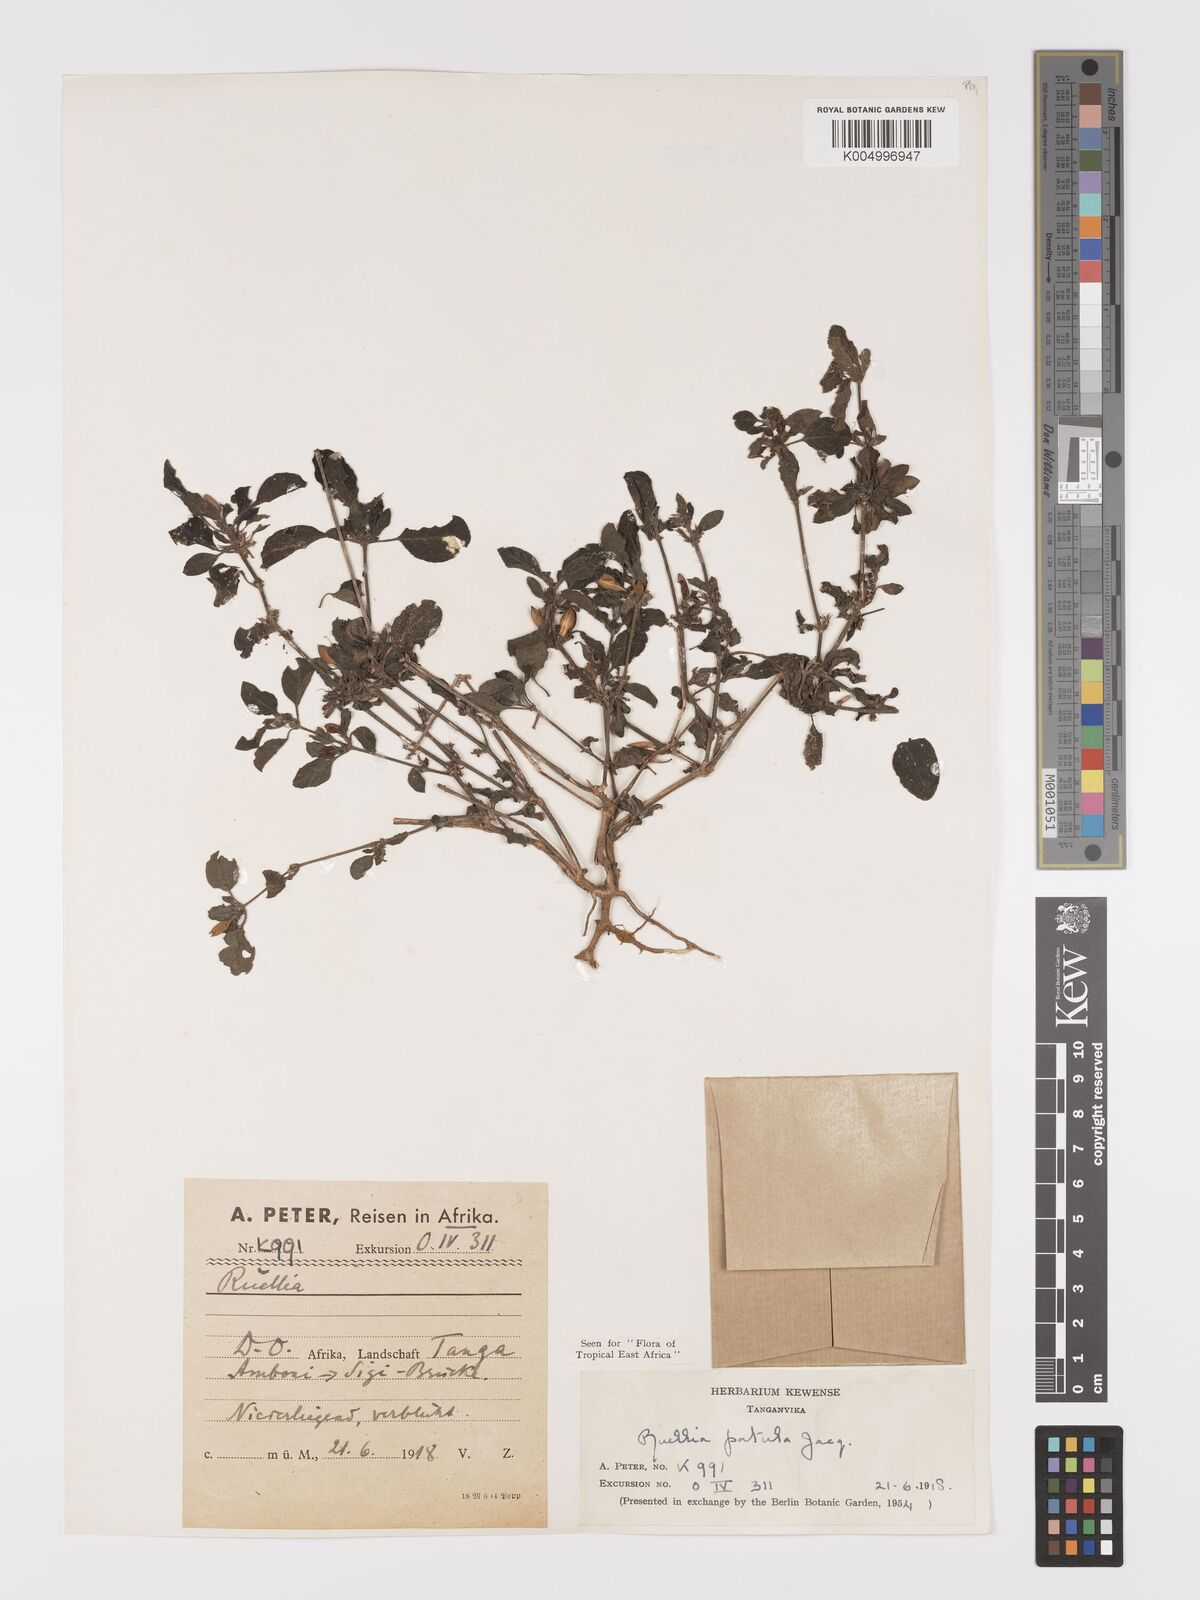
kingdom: Plantae
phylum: Tracheophyta
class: Magnoliopsida
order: Lamiales
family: Acanthaceae
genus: Ruellia
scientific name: Ruellia patula
